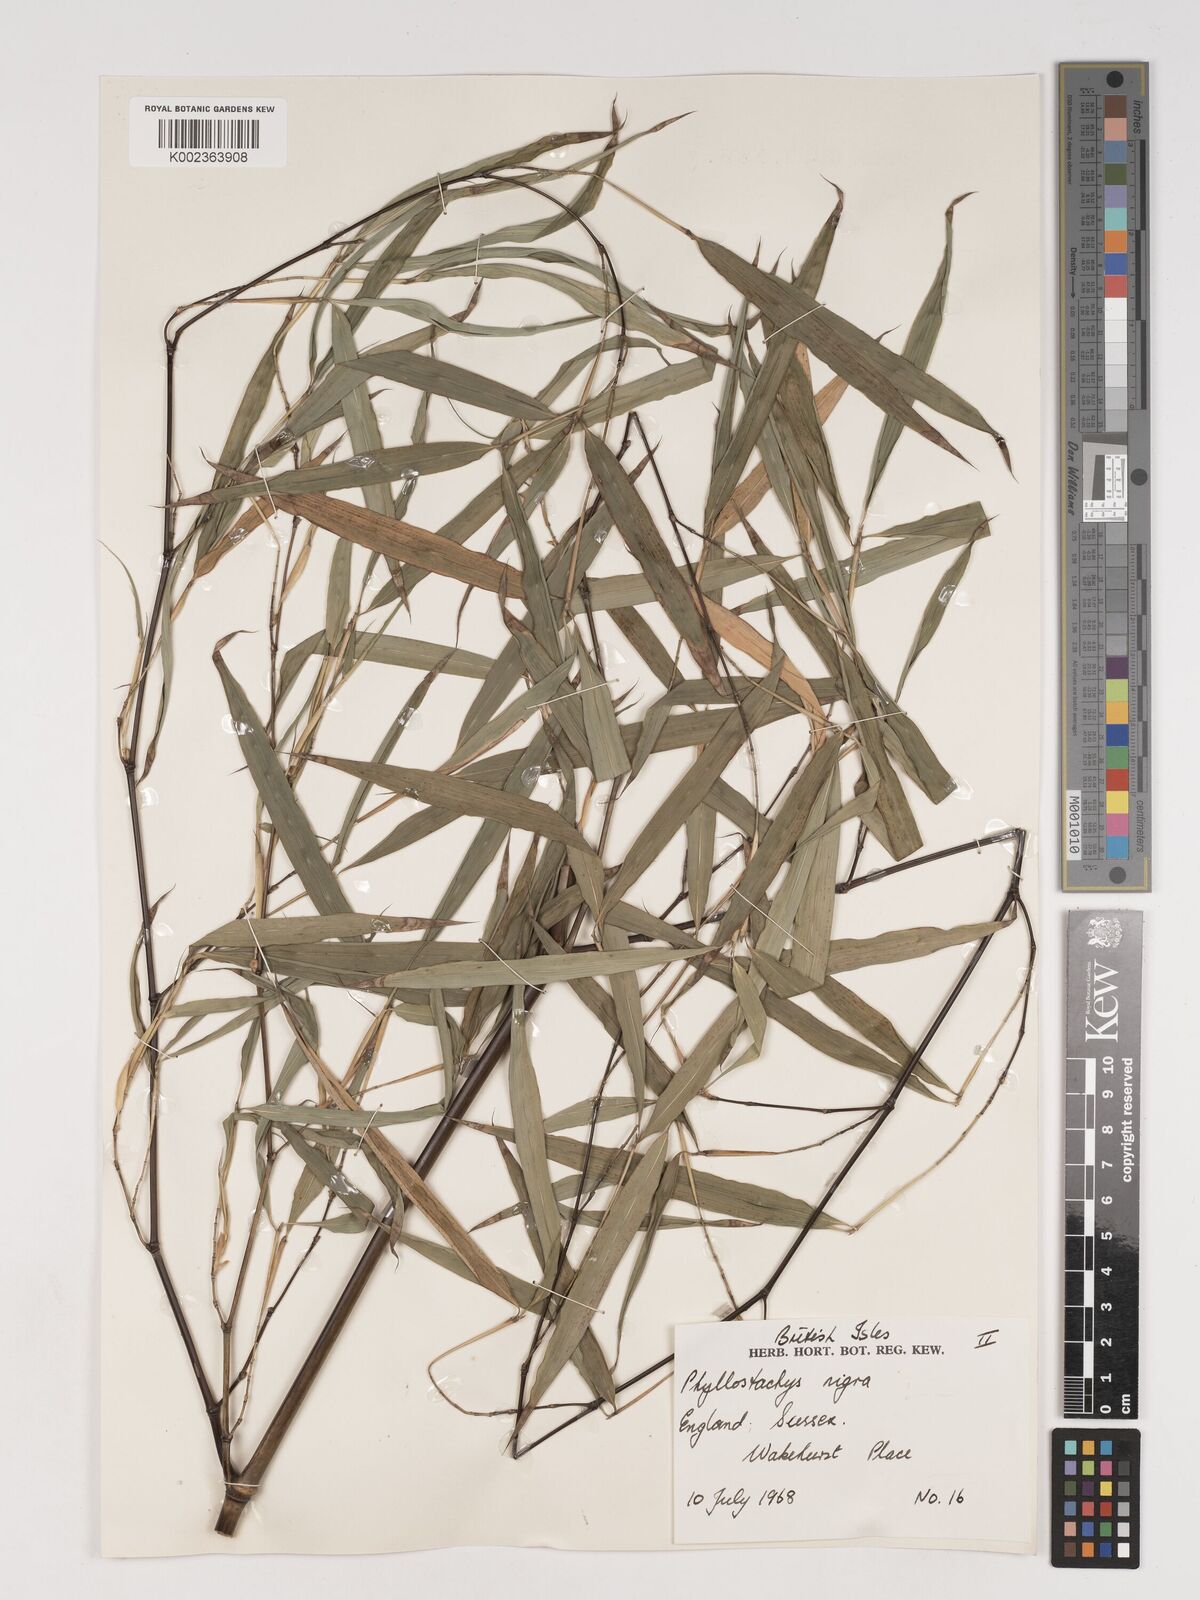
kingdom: Plantae
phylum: Tracheophyta
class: Liliopsida
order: Poales
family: Poaceae
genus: Phyllostachys
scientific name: Phyllostachys nigra
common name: Black bamboo
